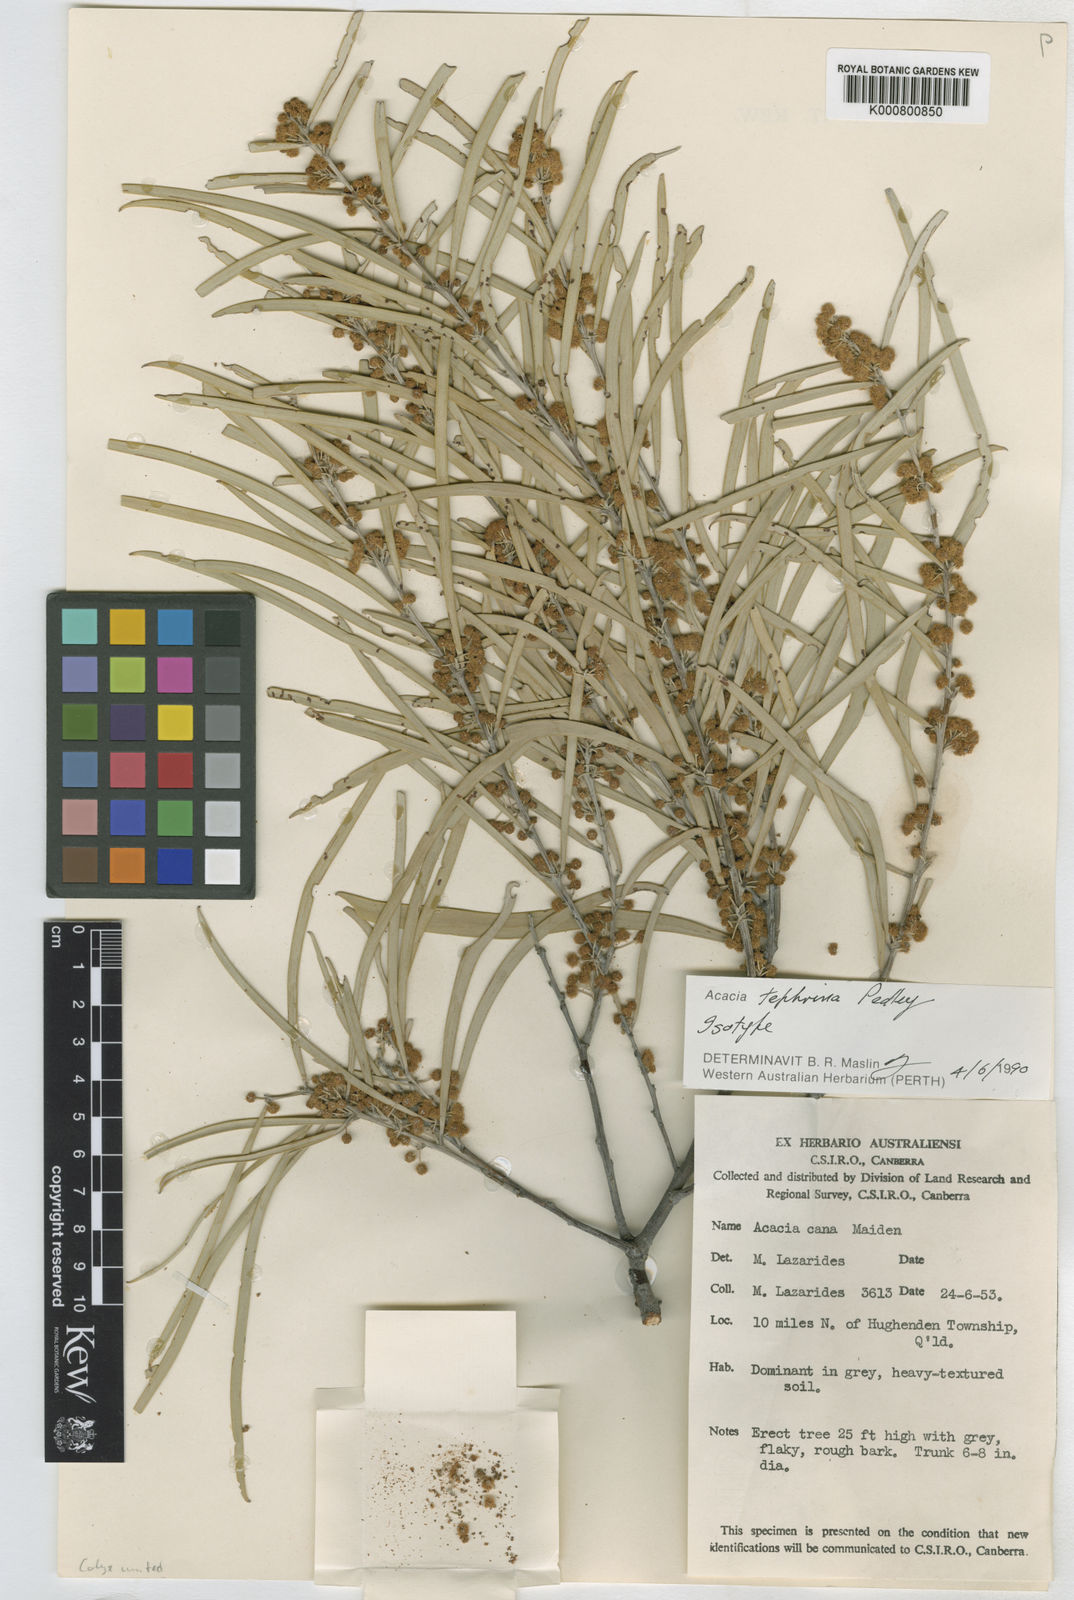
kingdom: Plantae
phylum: Tracheophyta
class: Magnoliopsida
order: Fabales
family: Fabaceae
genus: Acacia
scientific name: Acacia tephrina
